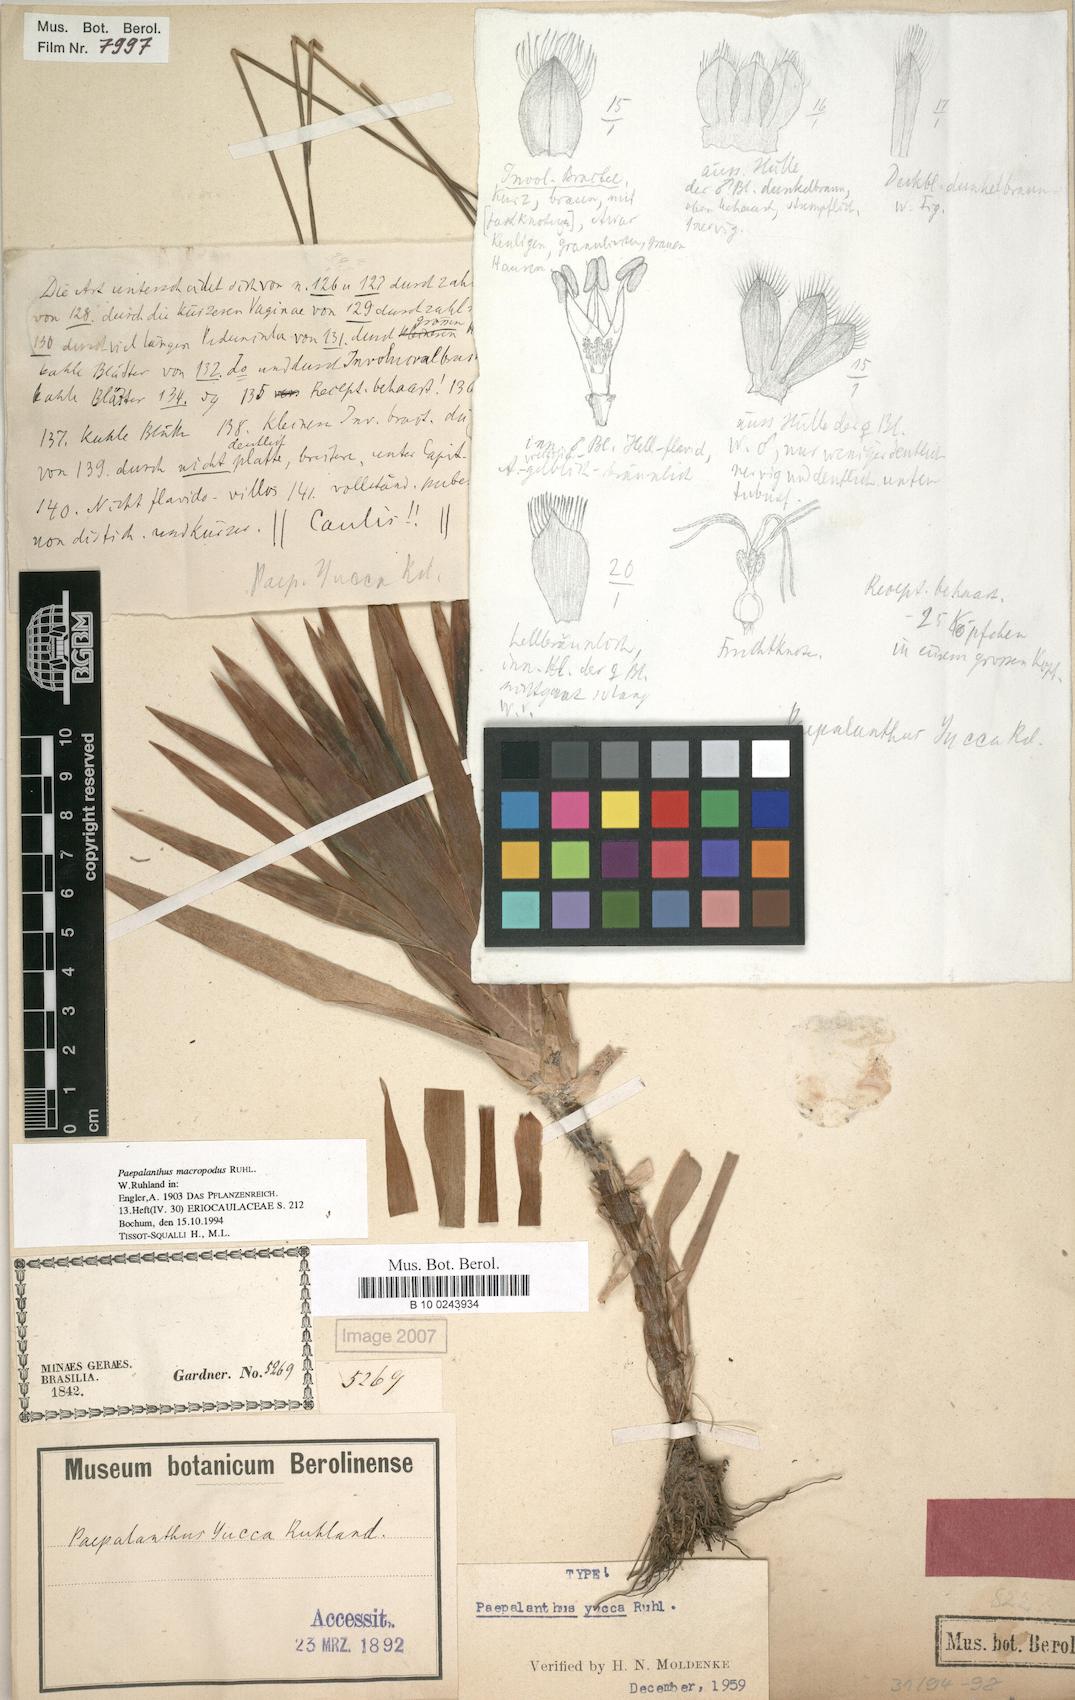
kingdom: Plantae
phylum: Tracheophyta
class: Liliopsida
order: Poales
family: Eriocaulaceae
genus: Paepalanthus
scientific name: Paepalanthus macropodus
